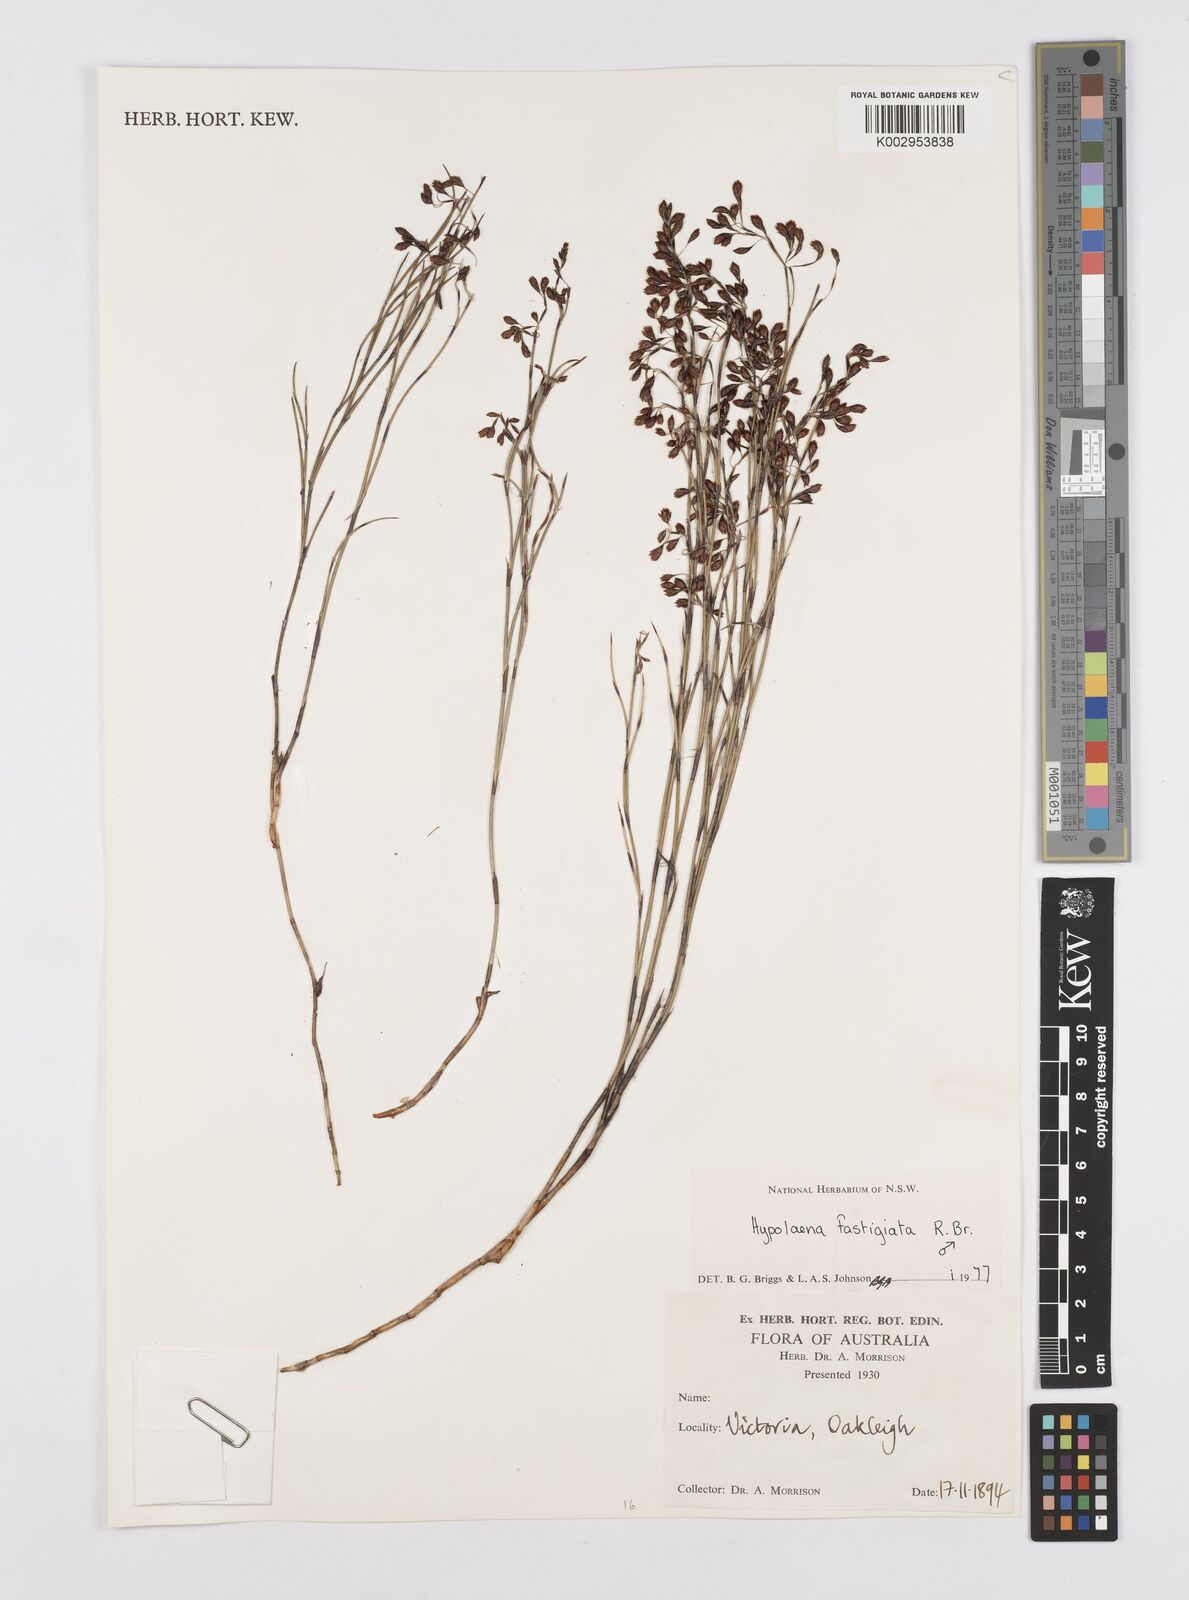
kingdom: Plantae
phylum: Tracheophyta
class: Liliopsida
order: Poales
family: Restionaceae
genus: Hypolaena
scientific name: Hypolaena fastigiata
